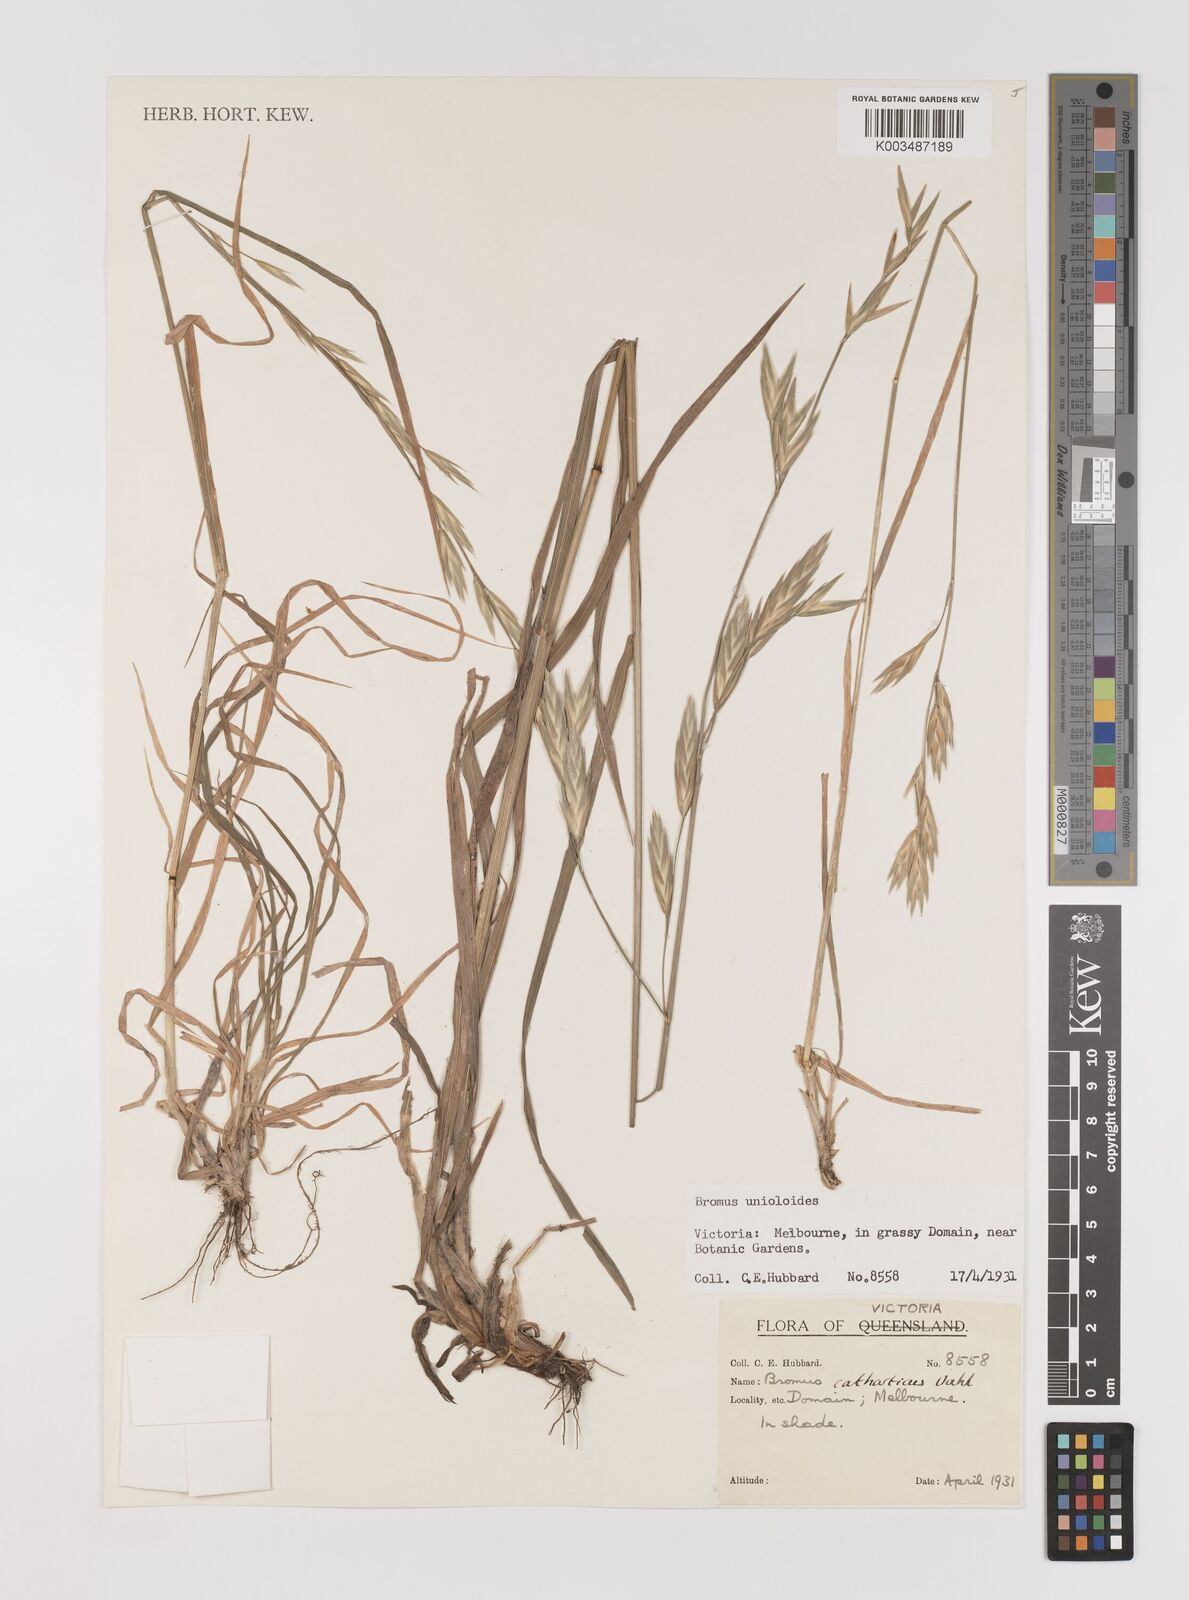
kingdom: Plantae
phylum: Tracheophyta
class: Liliopsida
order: Poales
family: Poaceae
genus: Bromus
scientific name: Bromus catharticus
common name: Rescuegrass
